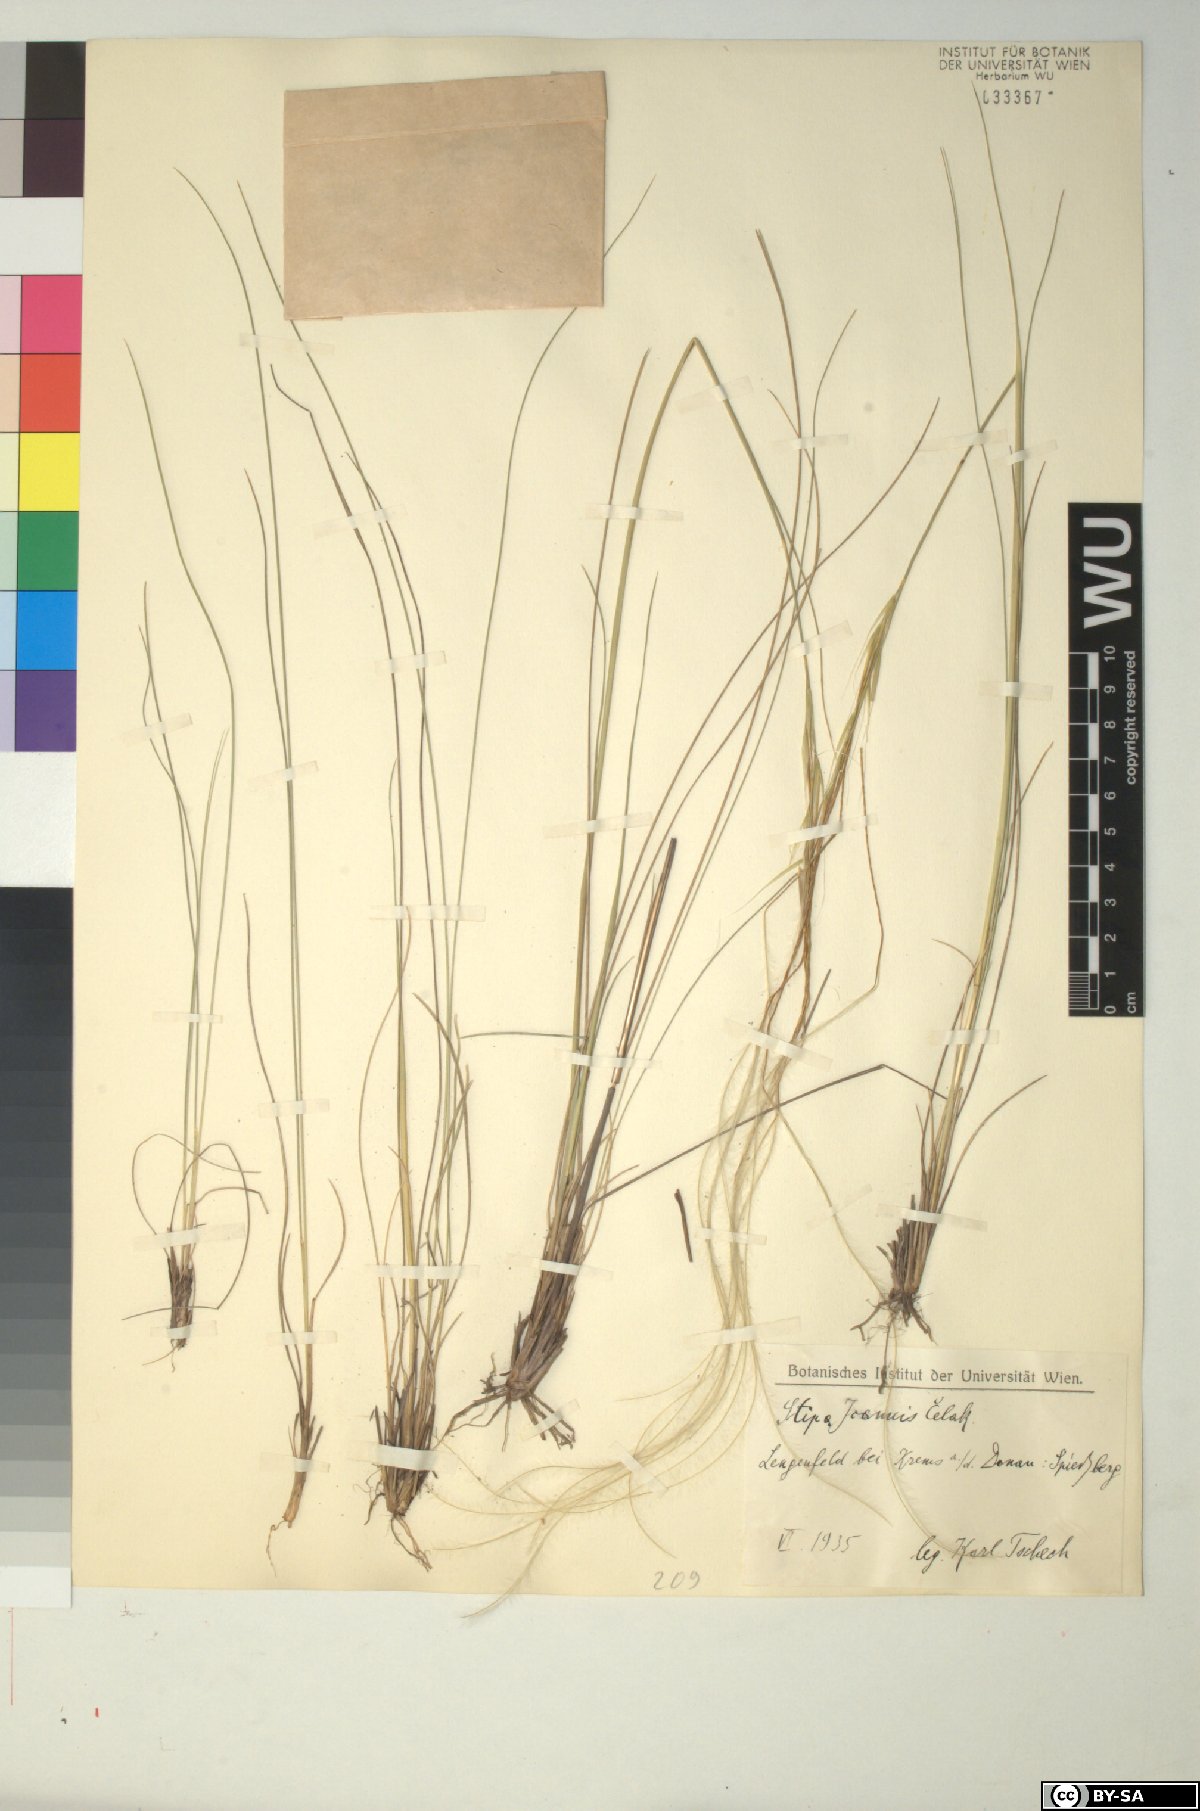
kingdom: Plantae
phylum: Tracheophyta
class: Liliopsida
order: Poales
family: Poaceae
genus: Stipa
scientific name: Stipa pennata
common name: European feather grass
